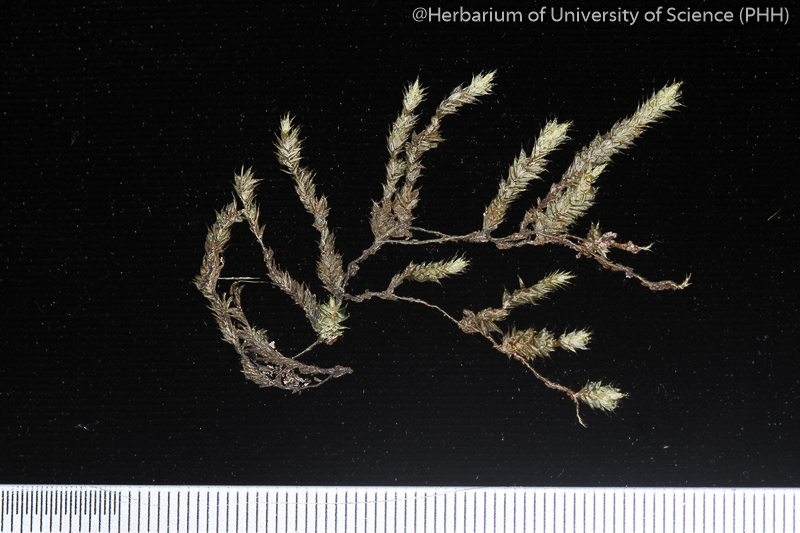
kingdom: Plantae
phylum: Bryophyta
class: Bryopsida
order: Hypnales
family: Pterobryaceae
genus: Pterobryopsis
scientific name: Pterobryopsis subcrassiuscula
